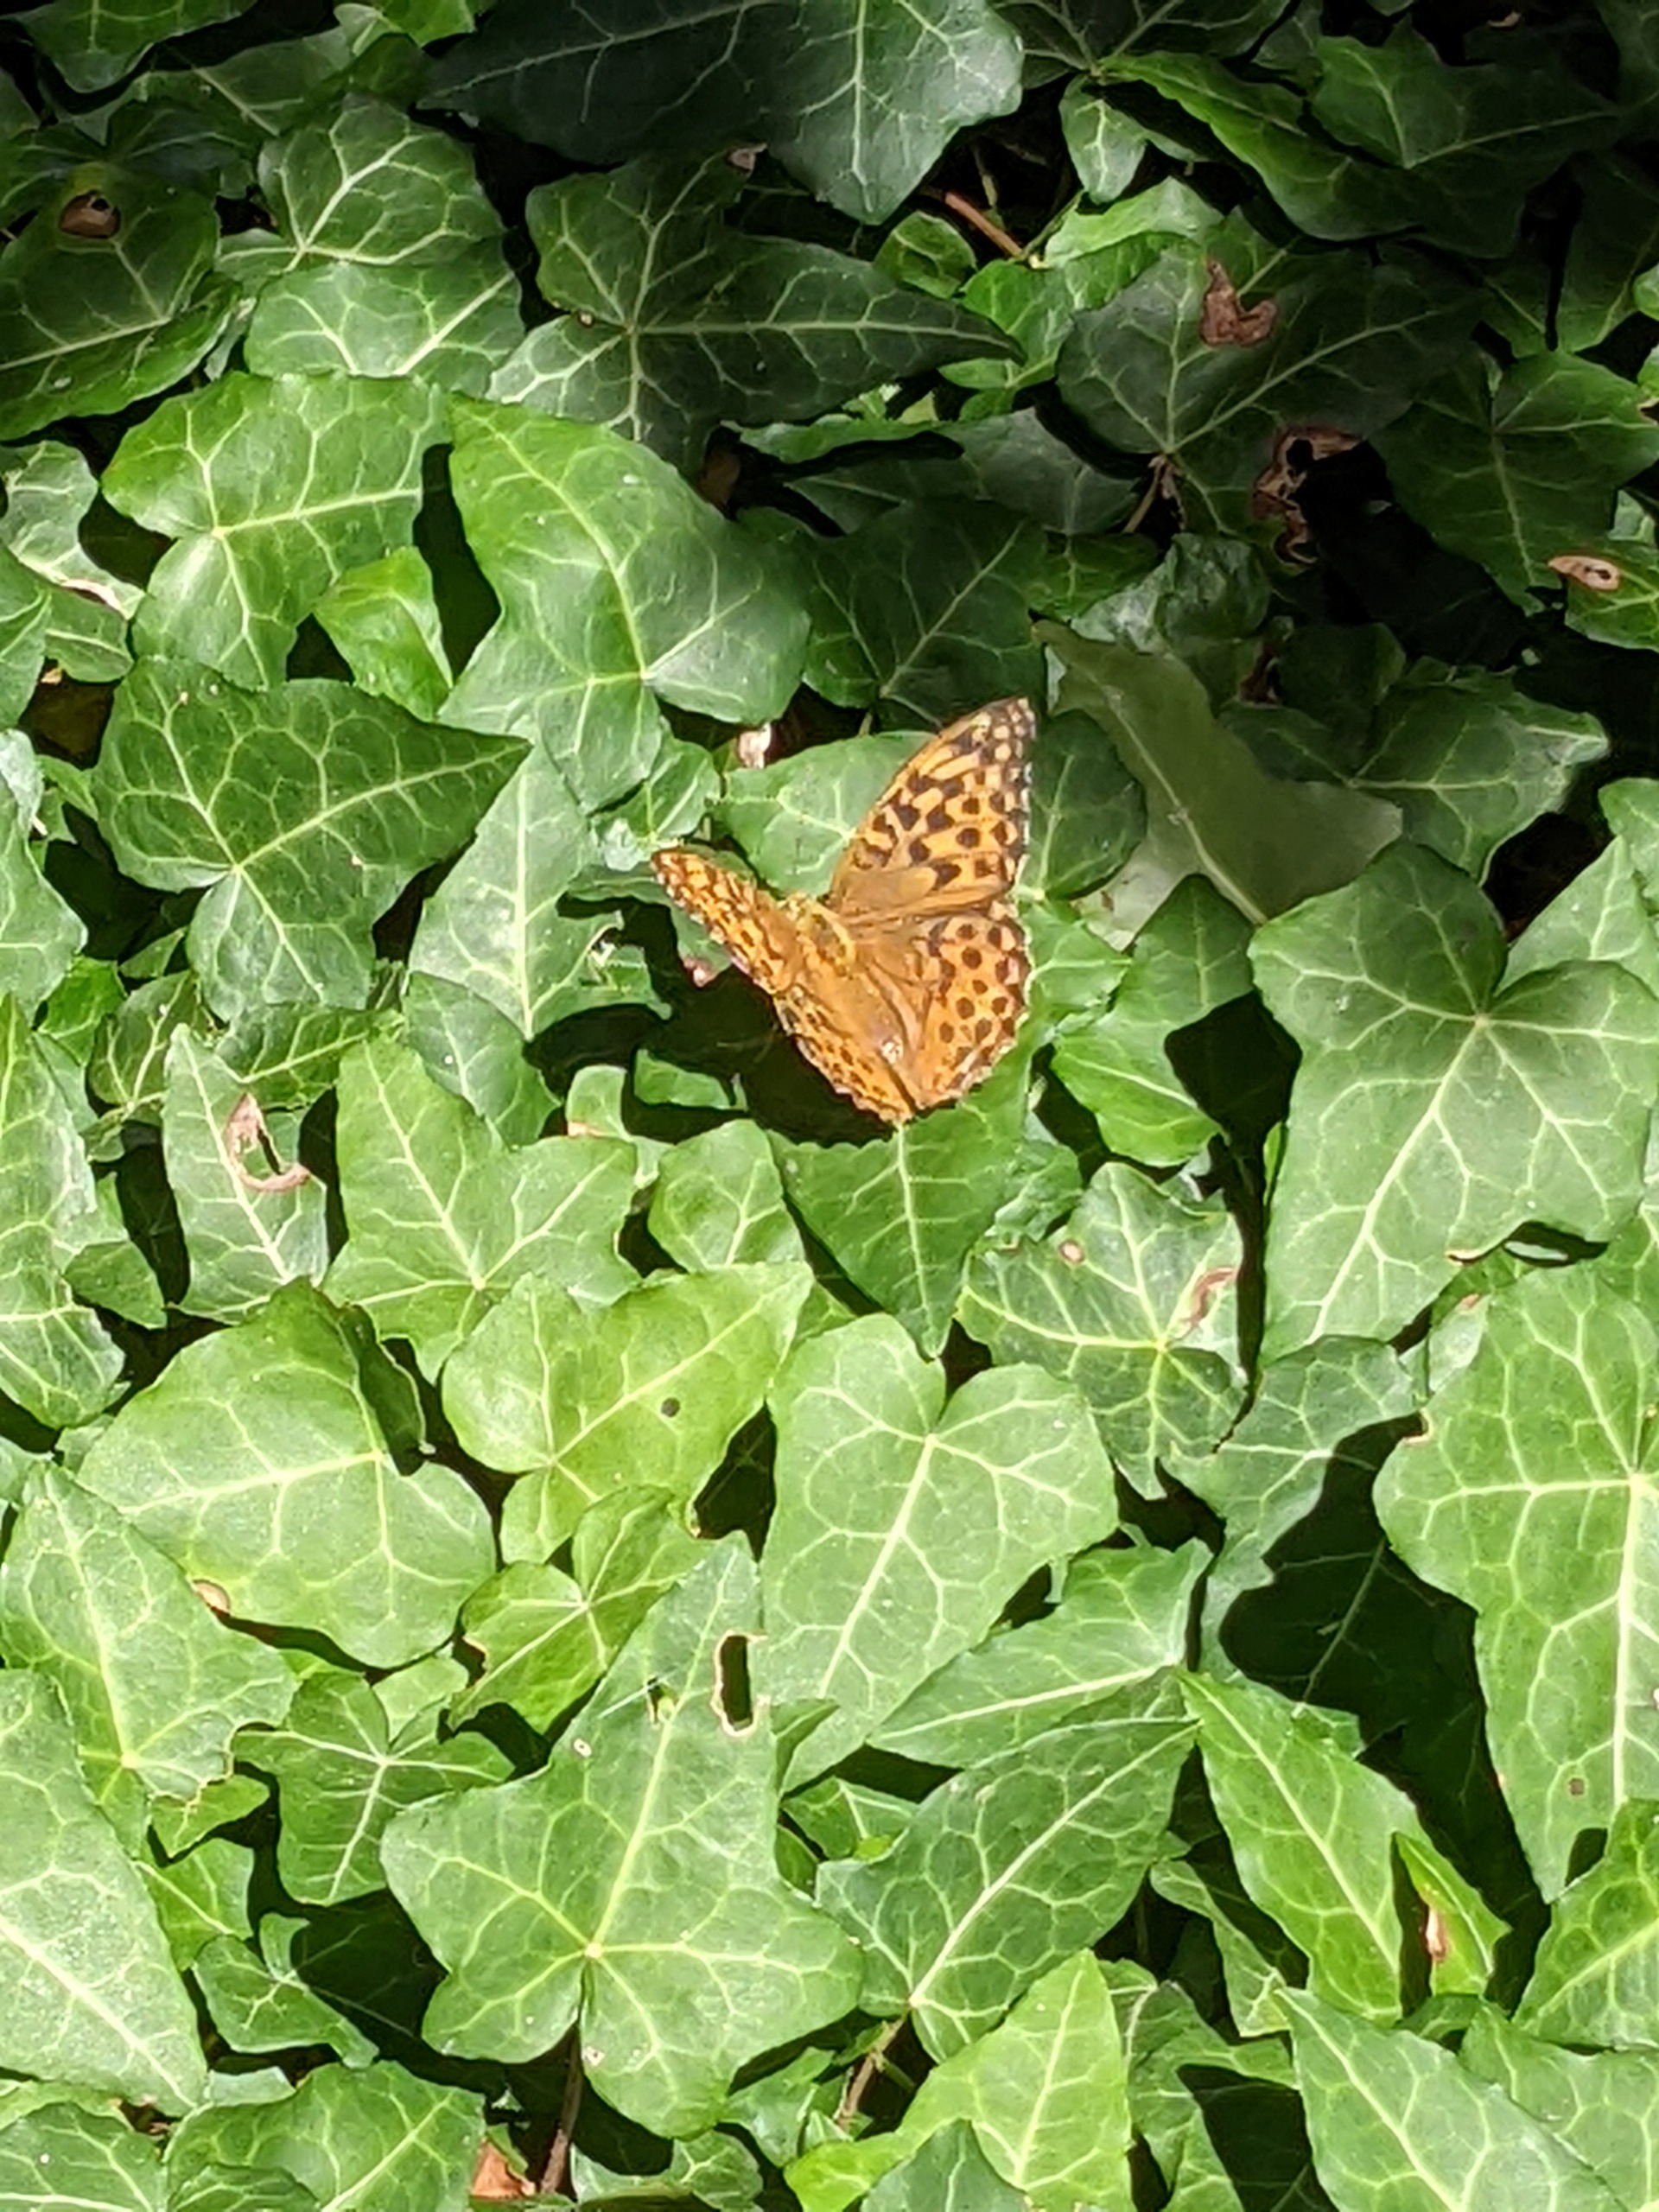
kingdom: Animalia
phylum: Arthropoda
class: Insecta
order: Lepidoptera
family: Nymphalidae
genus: Argynnis
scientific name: Argynnis paphia
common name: Kejserkåbe
